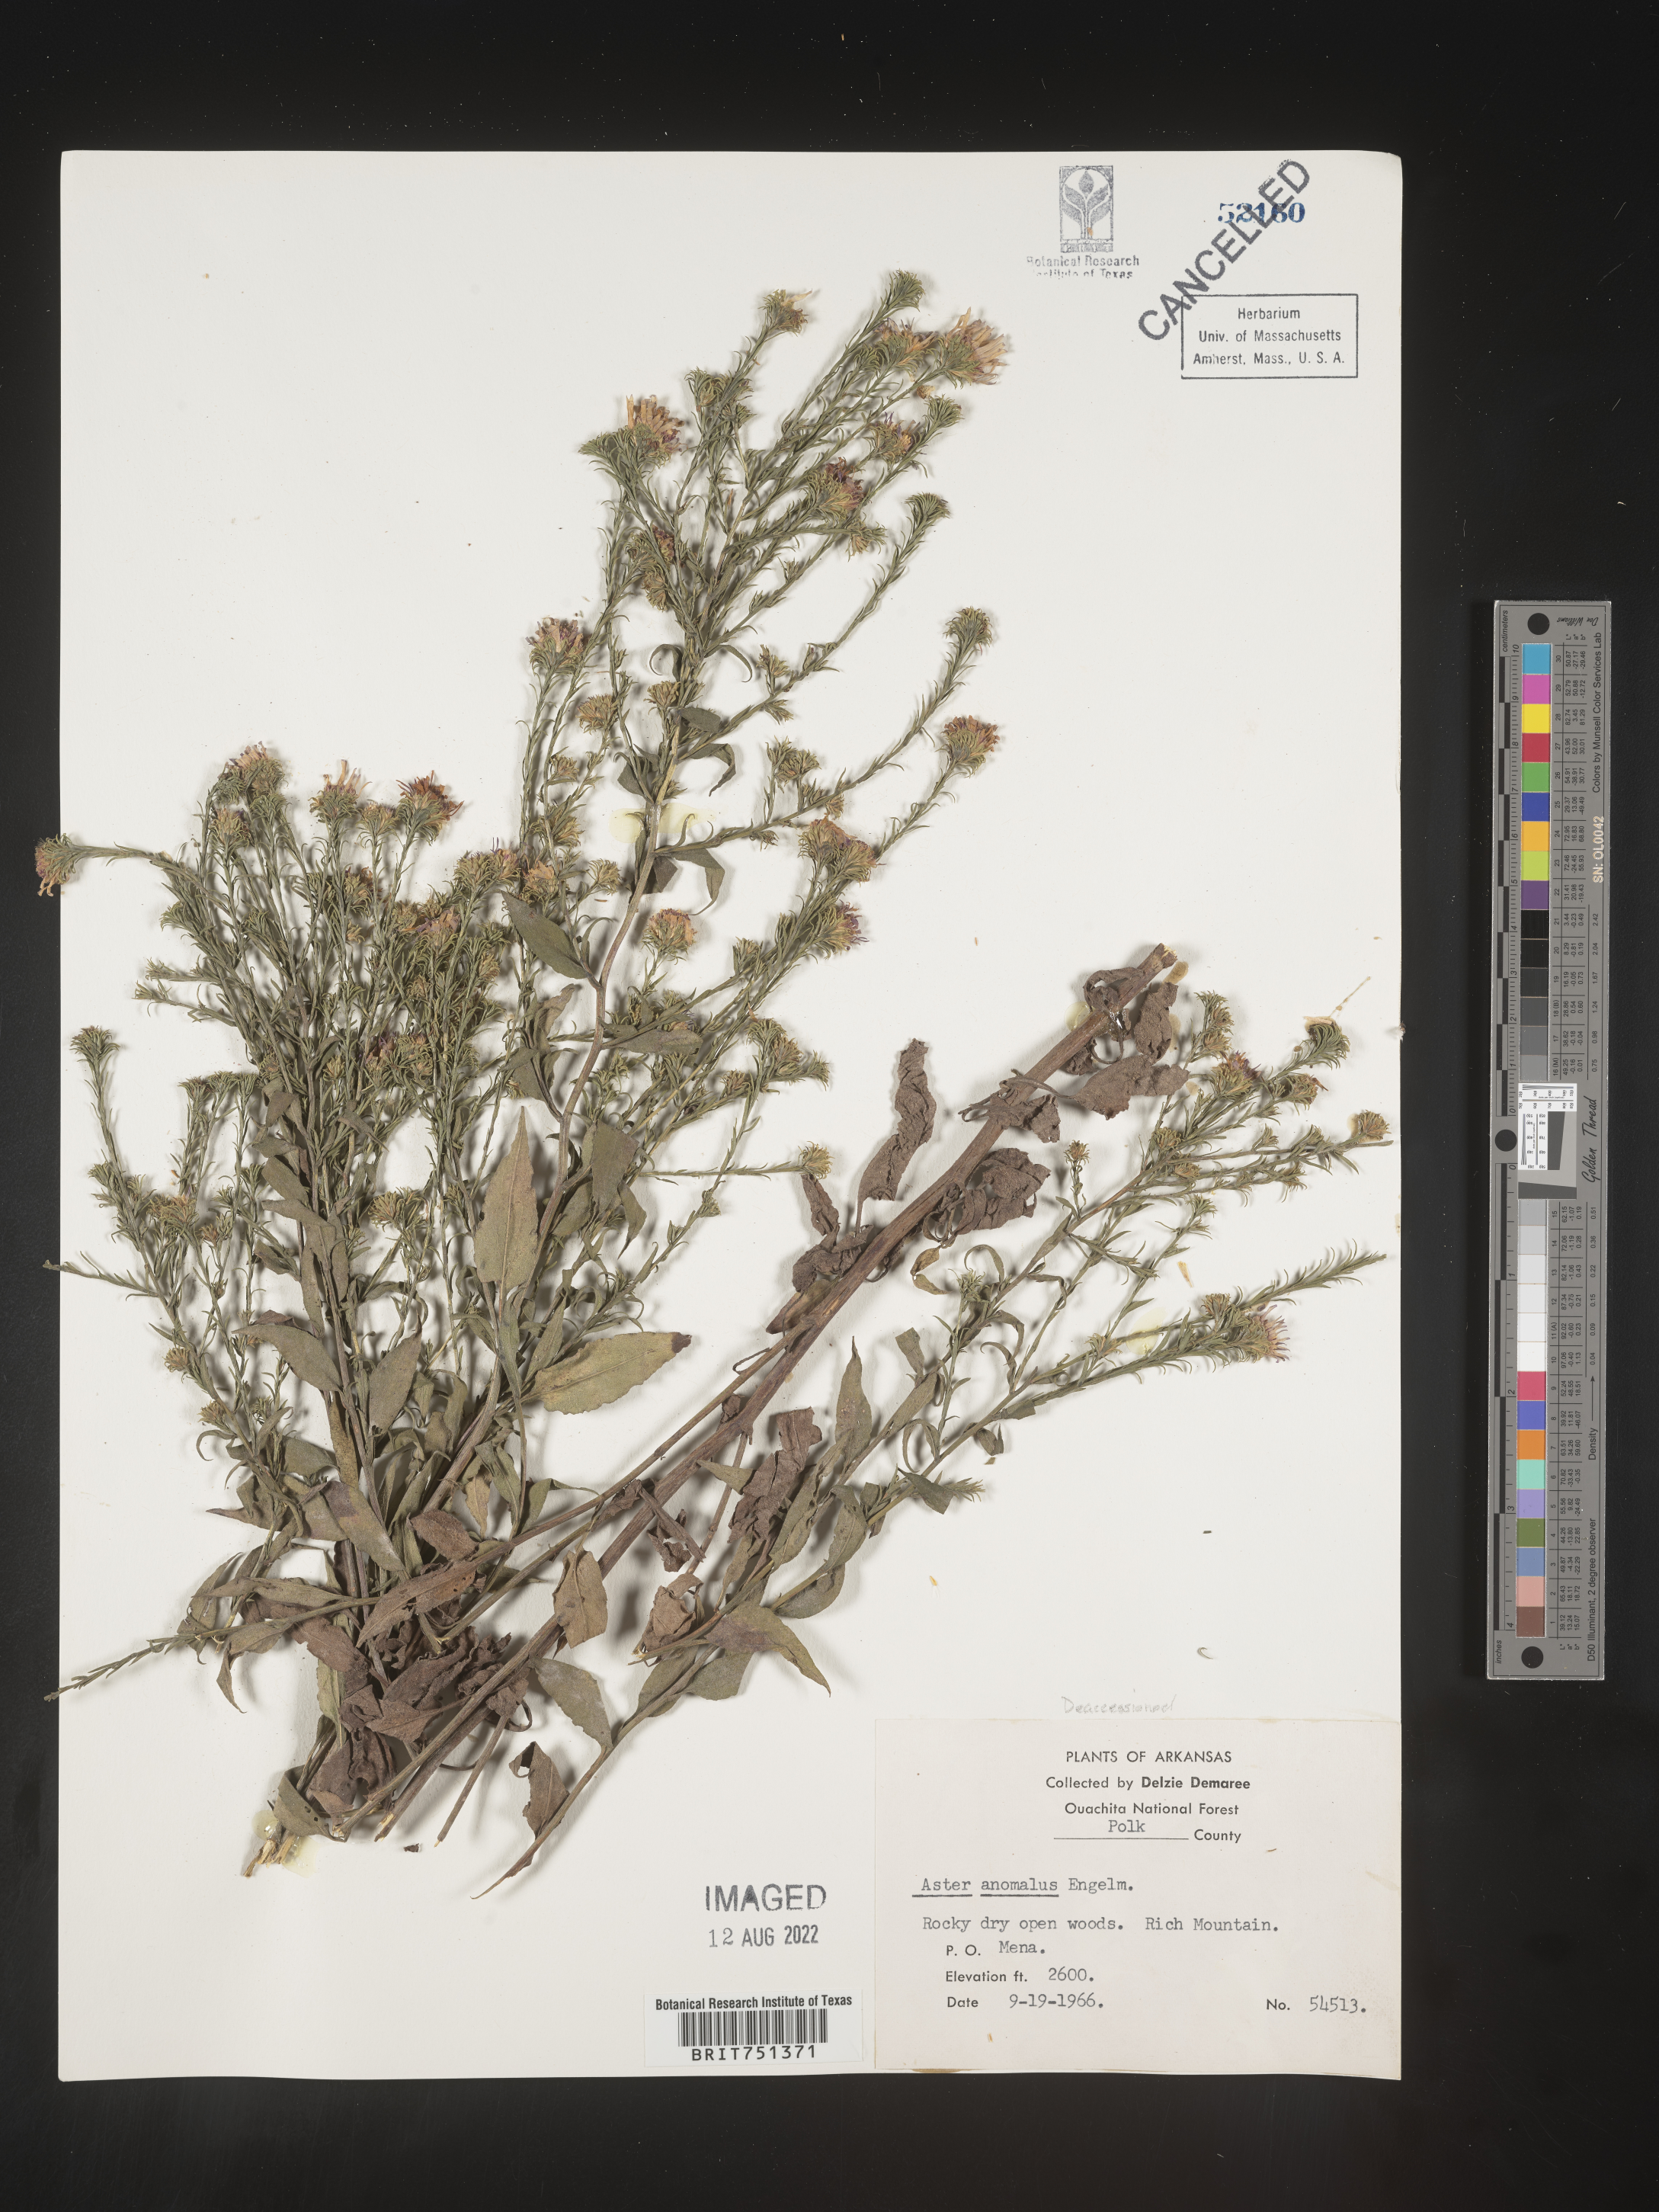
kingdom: Plantae
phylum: Tracheophyta
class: Magnoliopsida
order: Asterales
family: Asteraceae
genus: Symphyotrichum
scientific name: Symphyotrichum anomalum
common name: Many-ray aster
